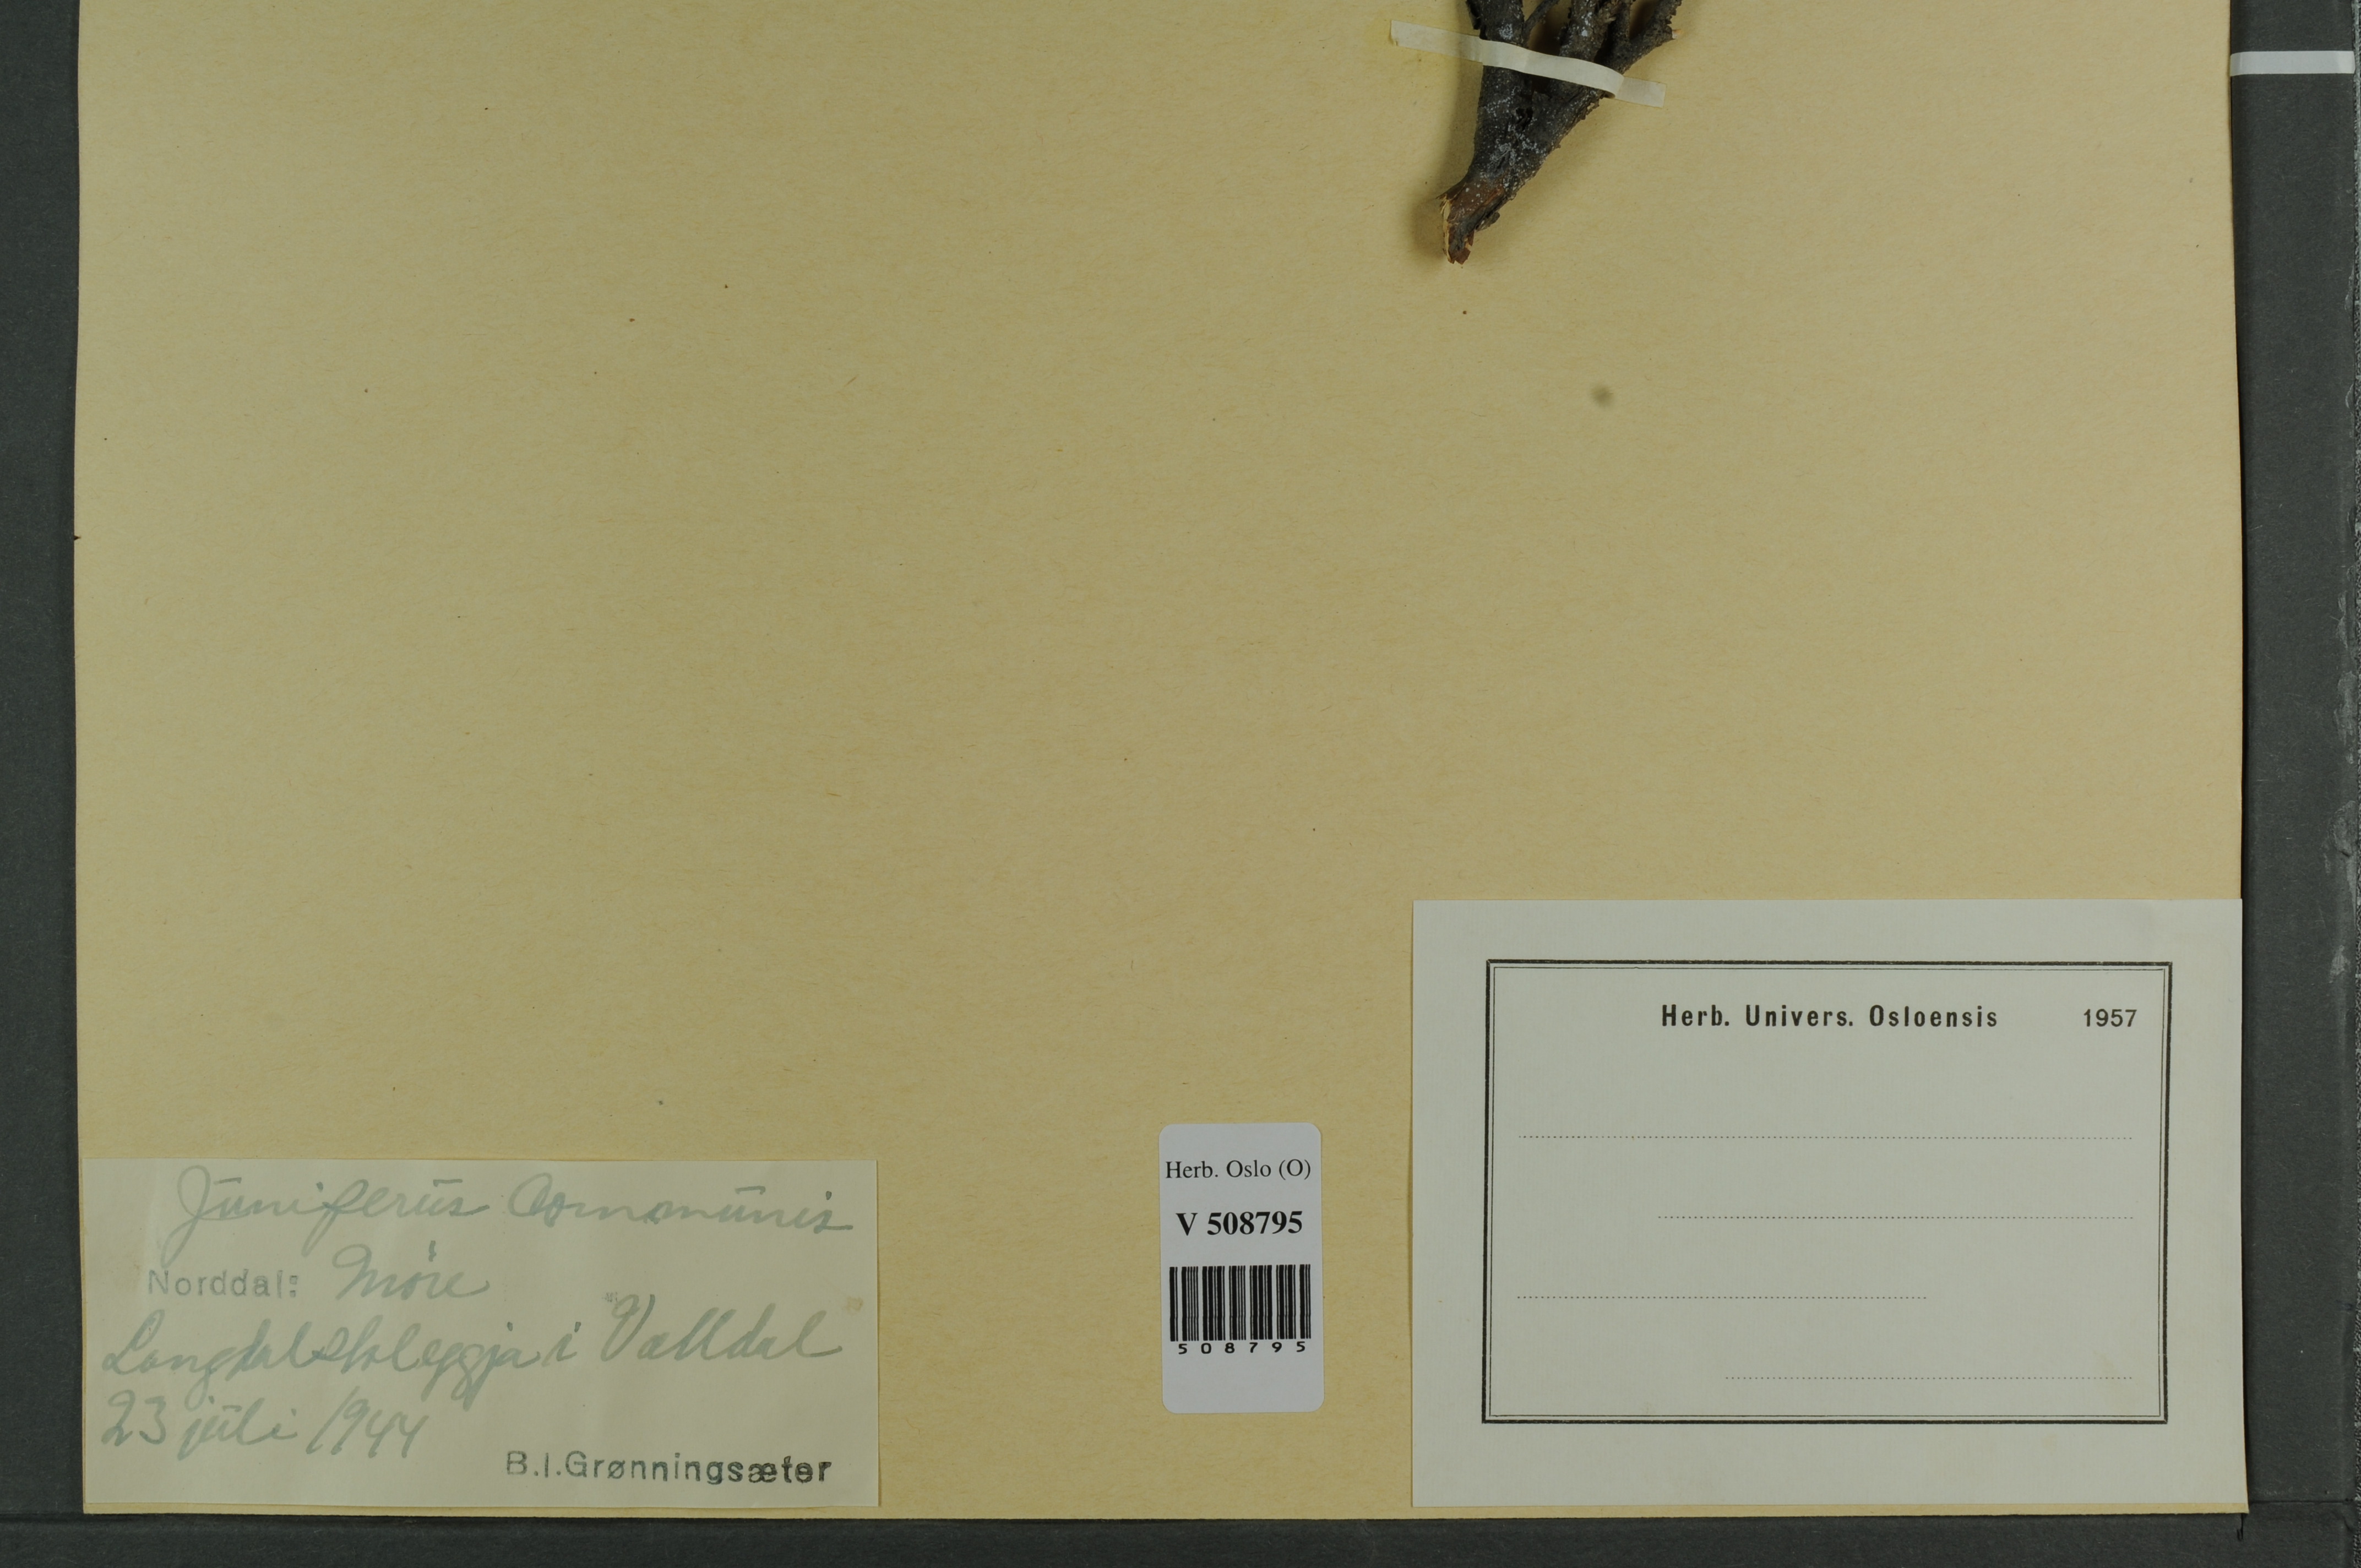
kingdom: Plantae
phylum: Tracheophyta
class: Pinopsida
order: Pinales
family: Cupressaceae
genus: Juniperus
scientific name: Juniperus communis
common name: Common juniper
